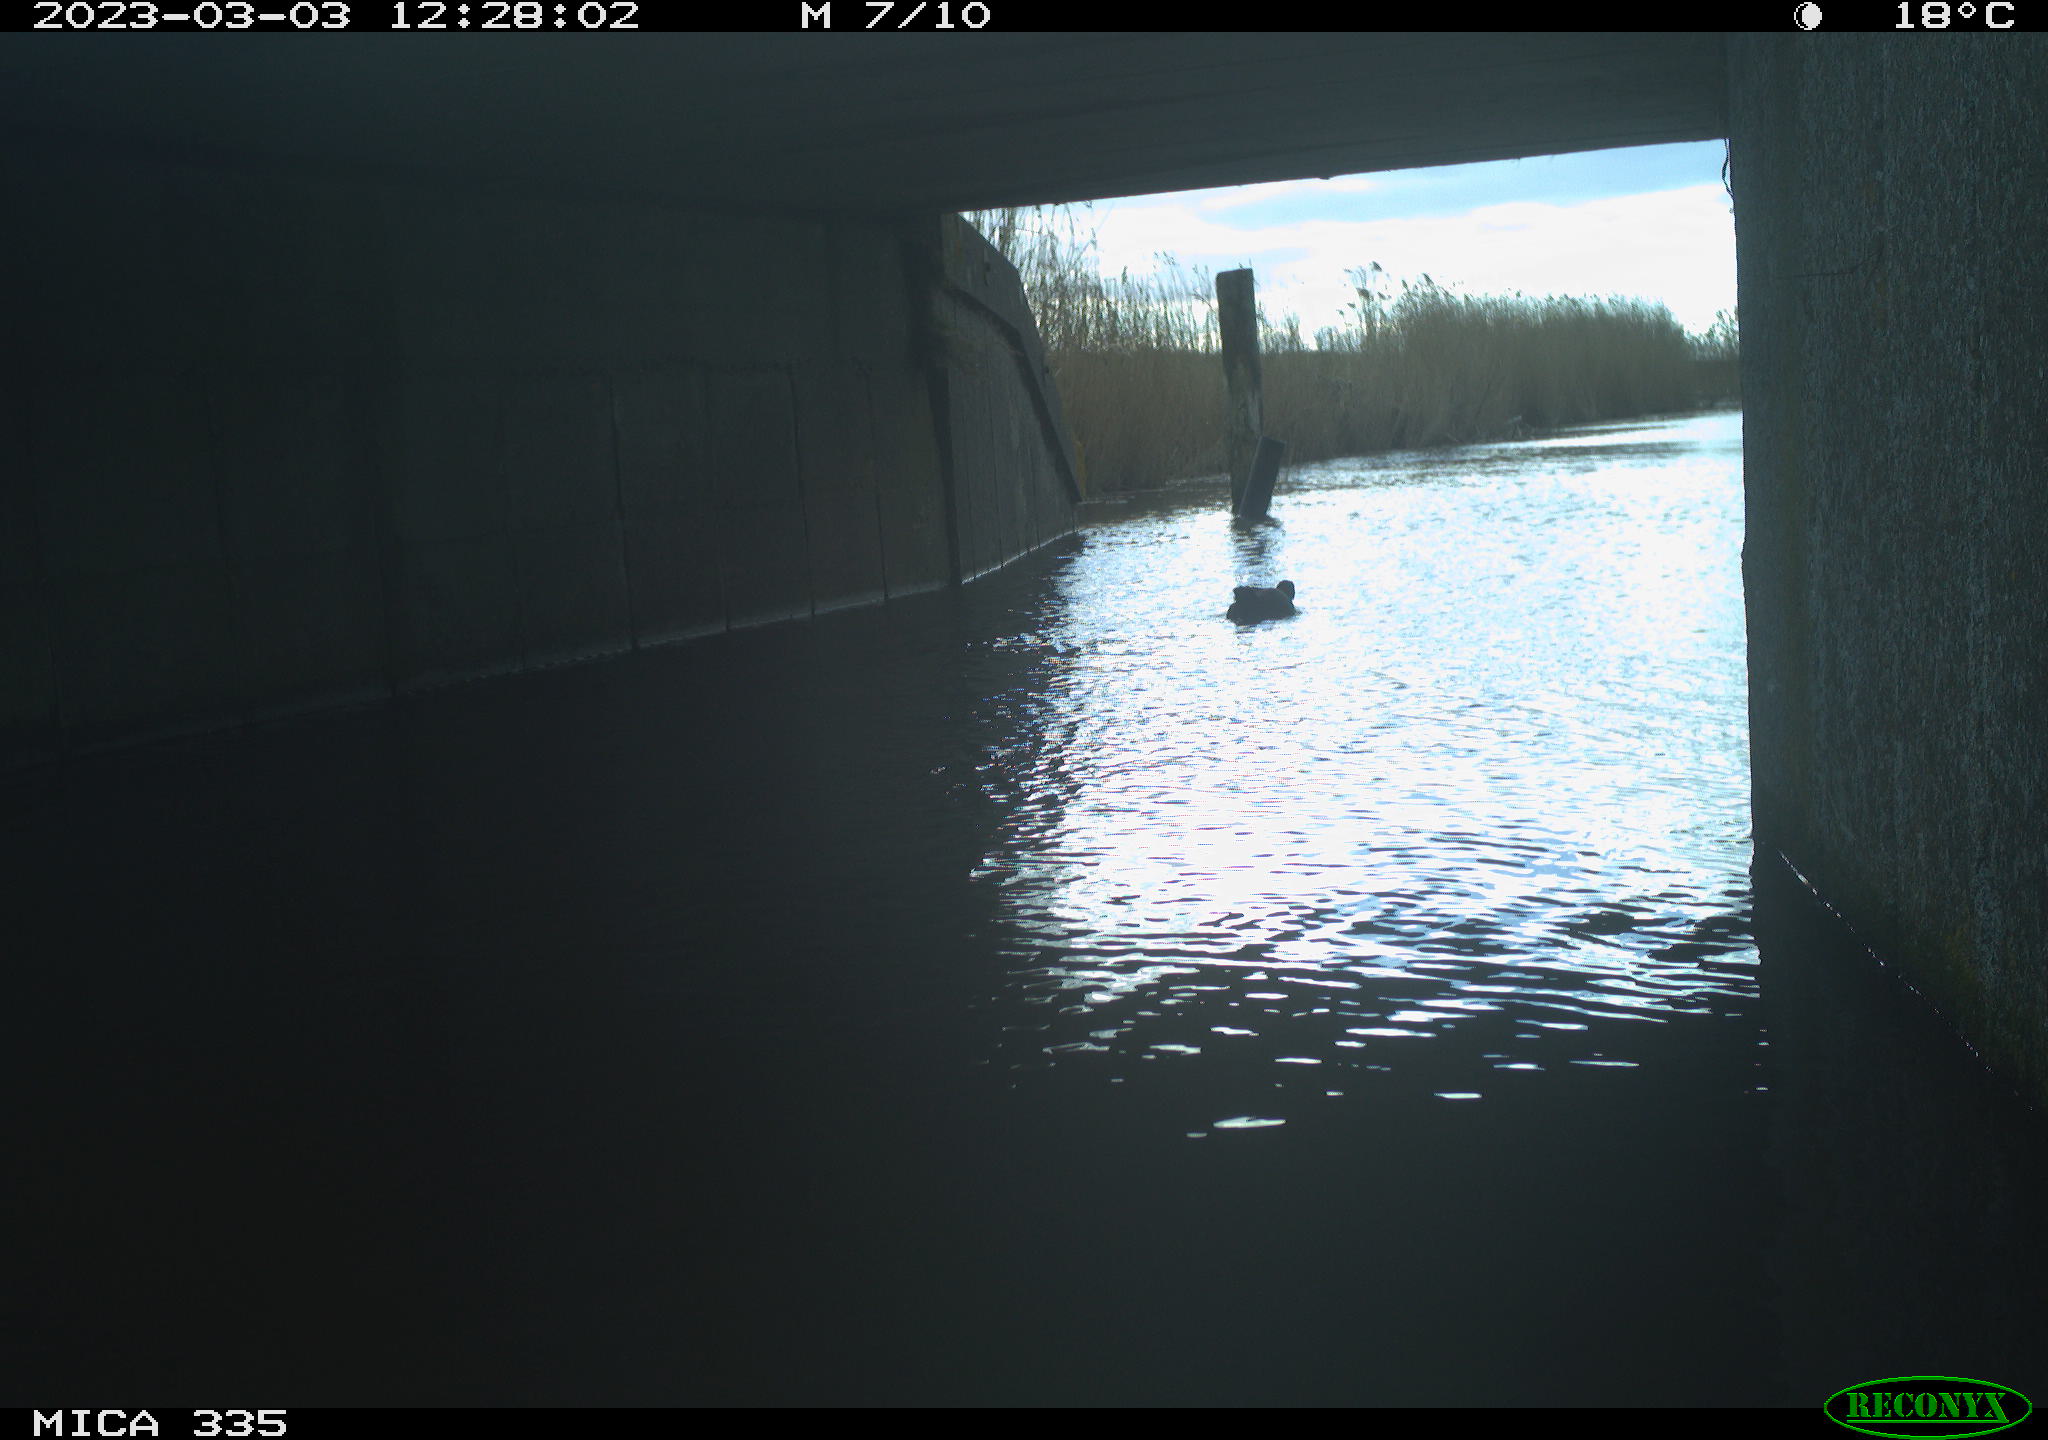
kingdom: Animalia
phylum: Chordata
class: Aves
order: Gruiformes
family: Rallidae
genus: Fulica
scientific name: Fulica atra
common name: Eurasian coot
